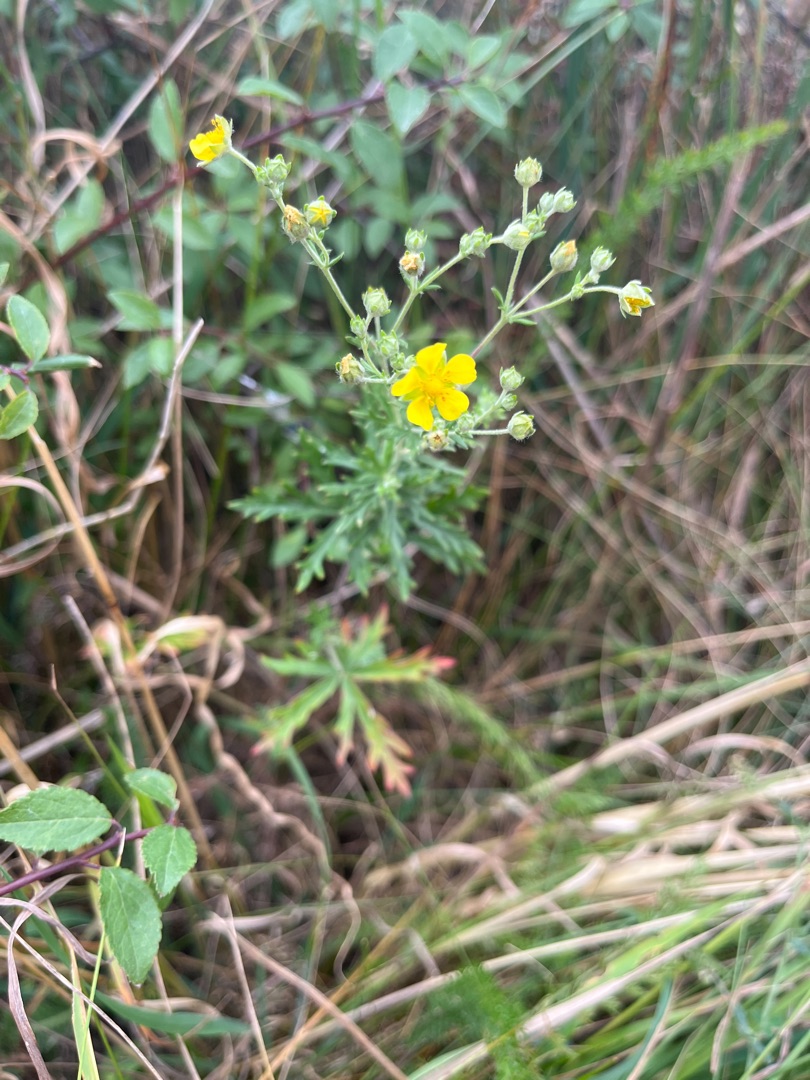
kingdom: Plantae
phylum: Tracheophyta
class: Magnoliopsida
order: Rosales
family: Rosaceae
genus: Potentilla
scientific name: Potentilla argentea
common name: Sølv-potentil
